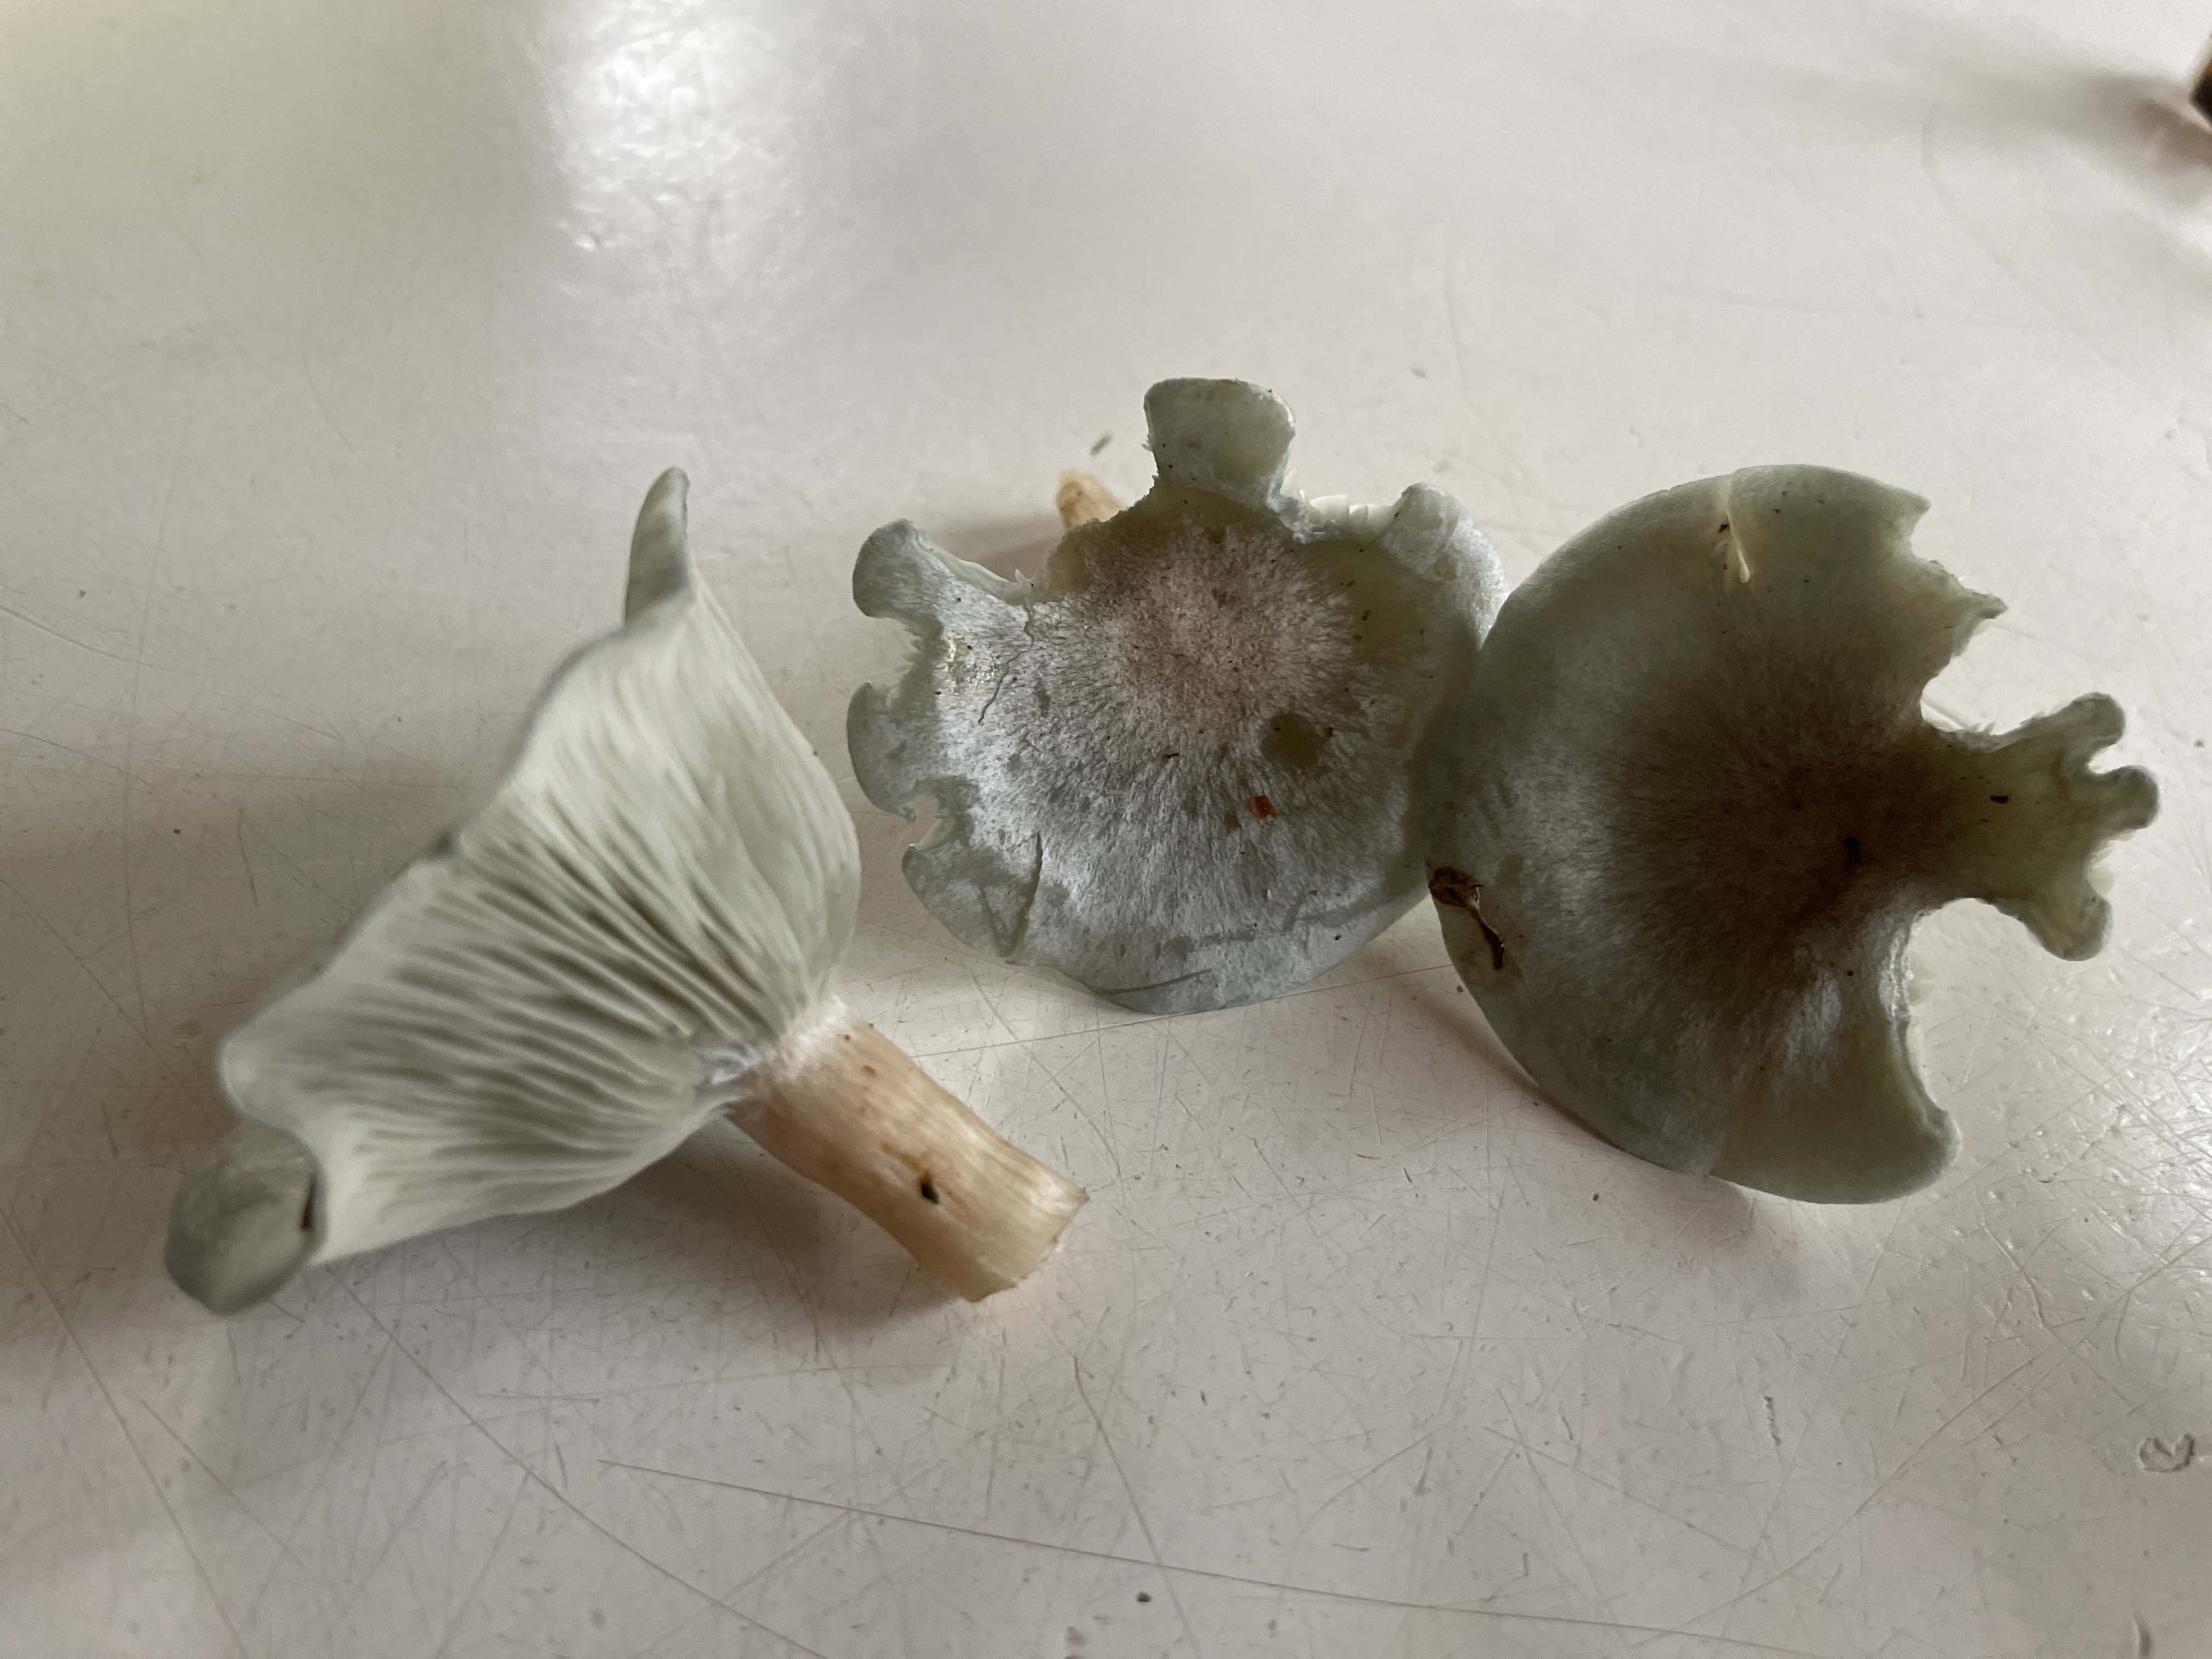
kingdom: Fungi
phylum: Basidiomycota
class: Agaricomycetes
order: Agaricales
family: Tricholomataceae
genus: Clitocybe
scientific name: Clitocybe odora
